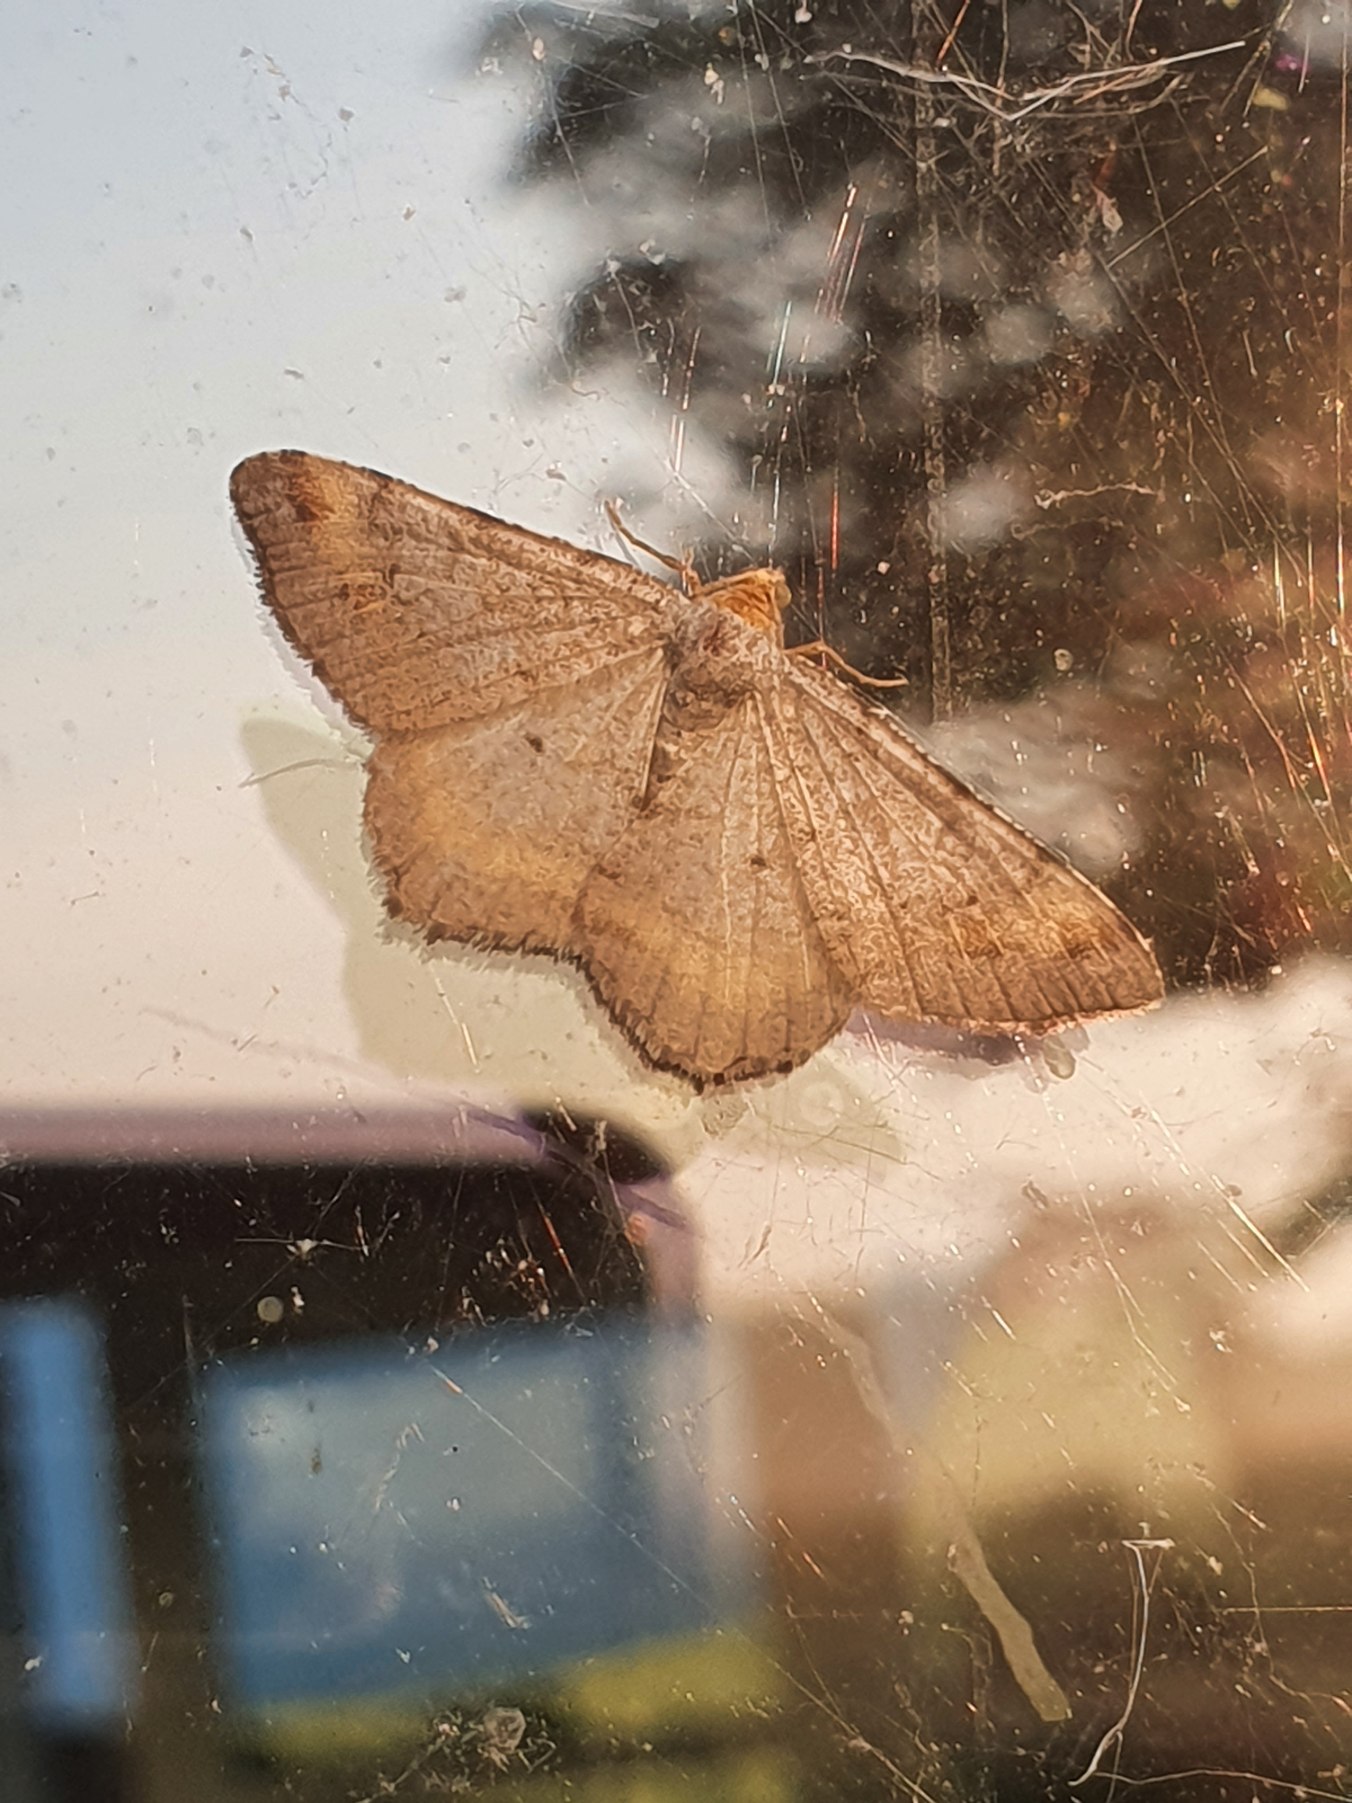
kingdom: Animalia
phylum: Arthropoda
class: Insecta
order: Lepidoptera
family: Geometridae
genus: Macaria
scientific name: Macaria liturata
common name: Fyrre-skovmåler
